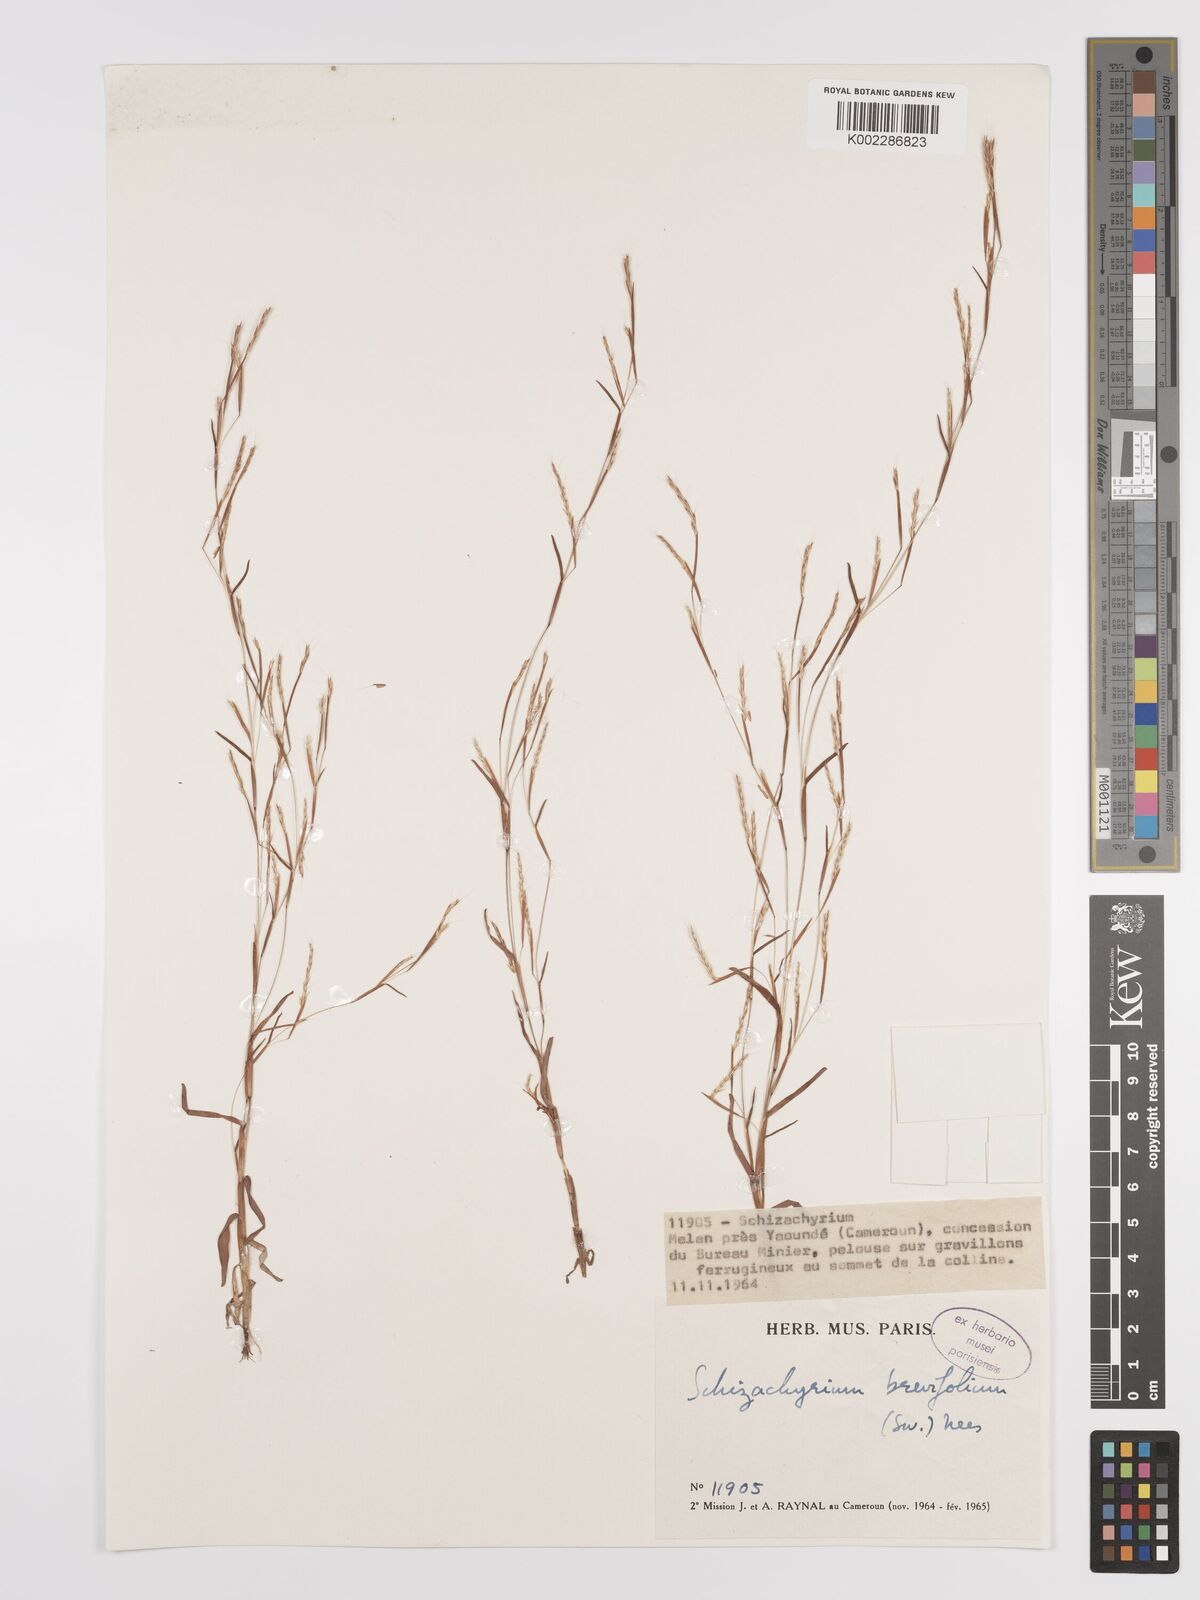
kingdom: Plantae
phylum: Tracheophyta
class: Liliopsida
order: Poales
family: Poaceae
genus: Schizachyrium
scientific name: Schizachyrium maclaudii
